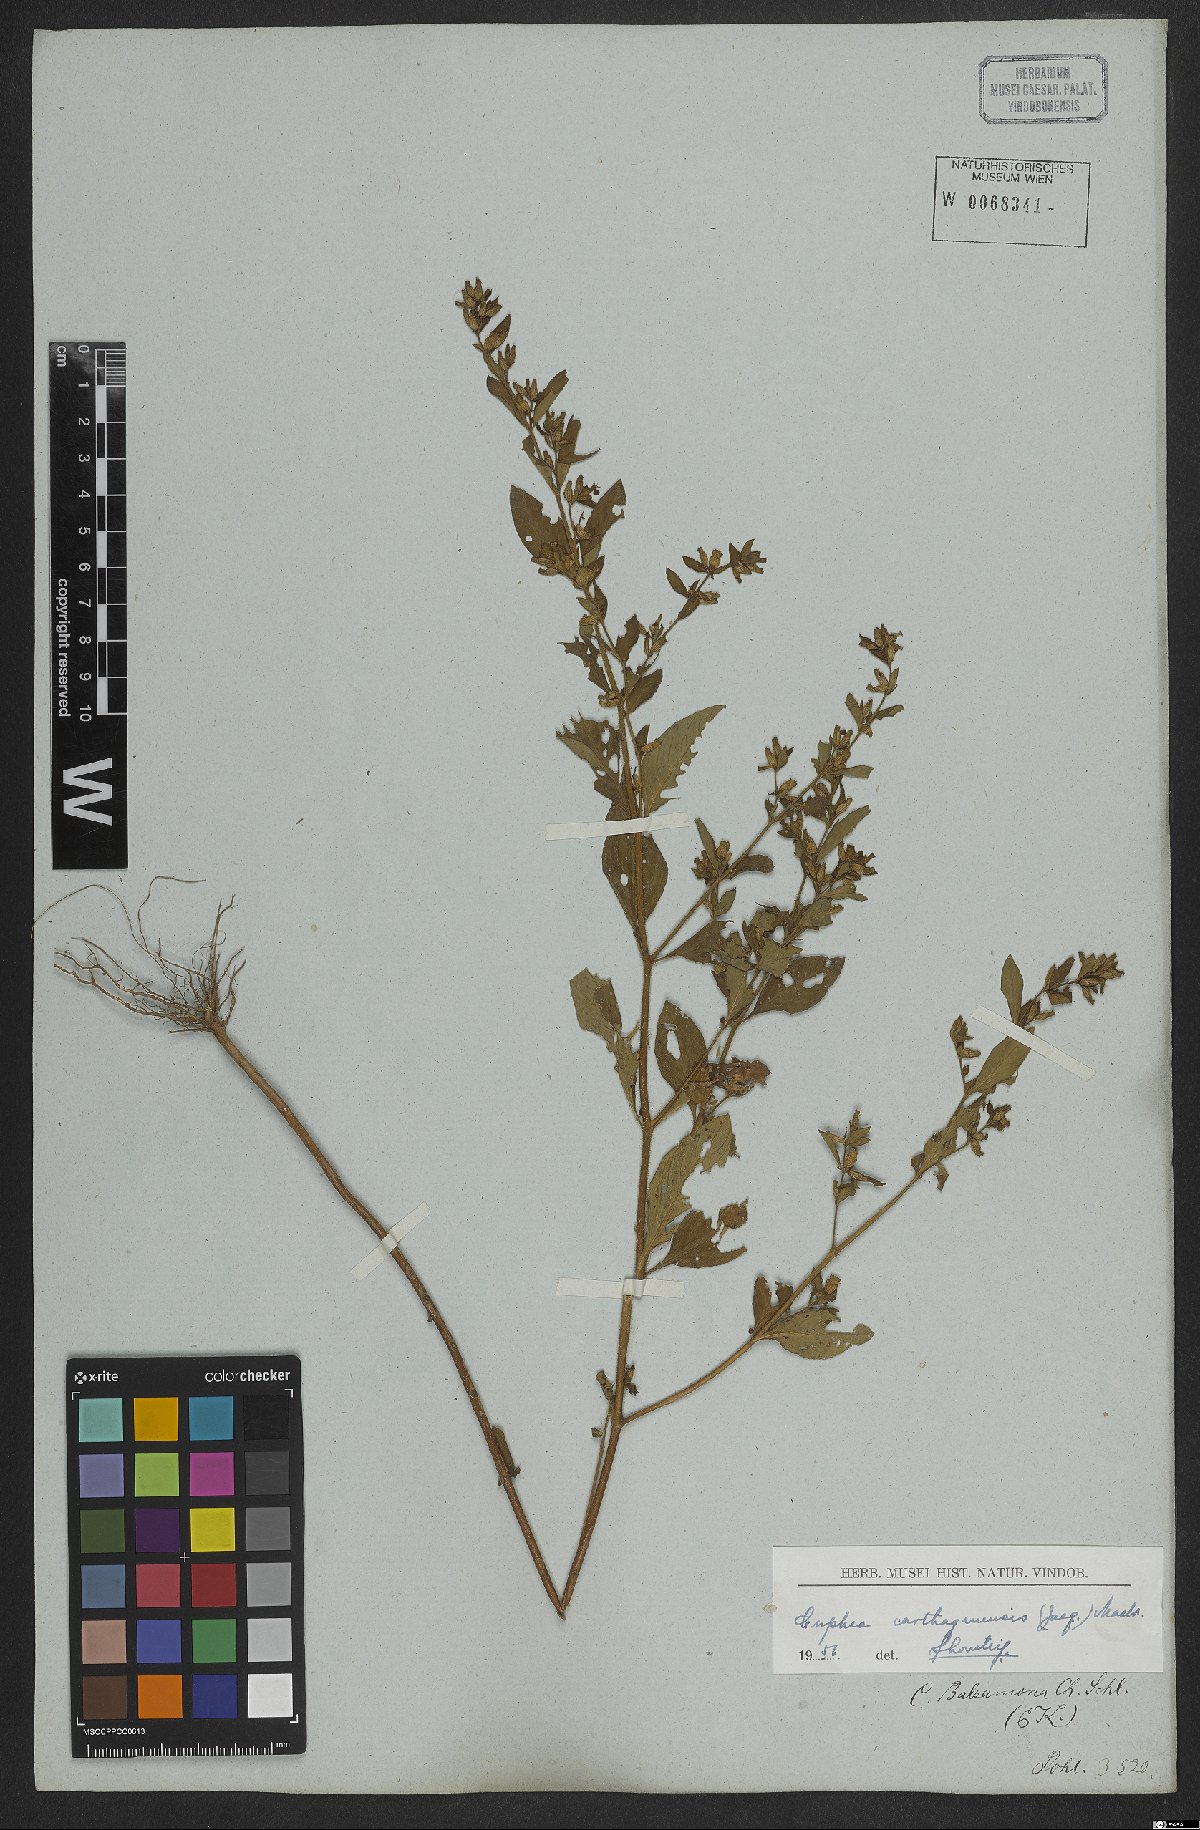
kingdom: Plantae
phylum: Tracheophyta
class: Magnoliopsida
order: Myrtales
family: Lythraceae
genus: Cuphea
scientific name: Cuphea carthagenensis
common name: Colombian waxweed
